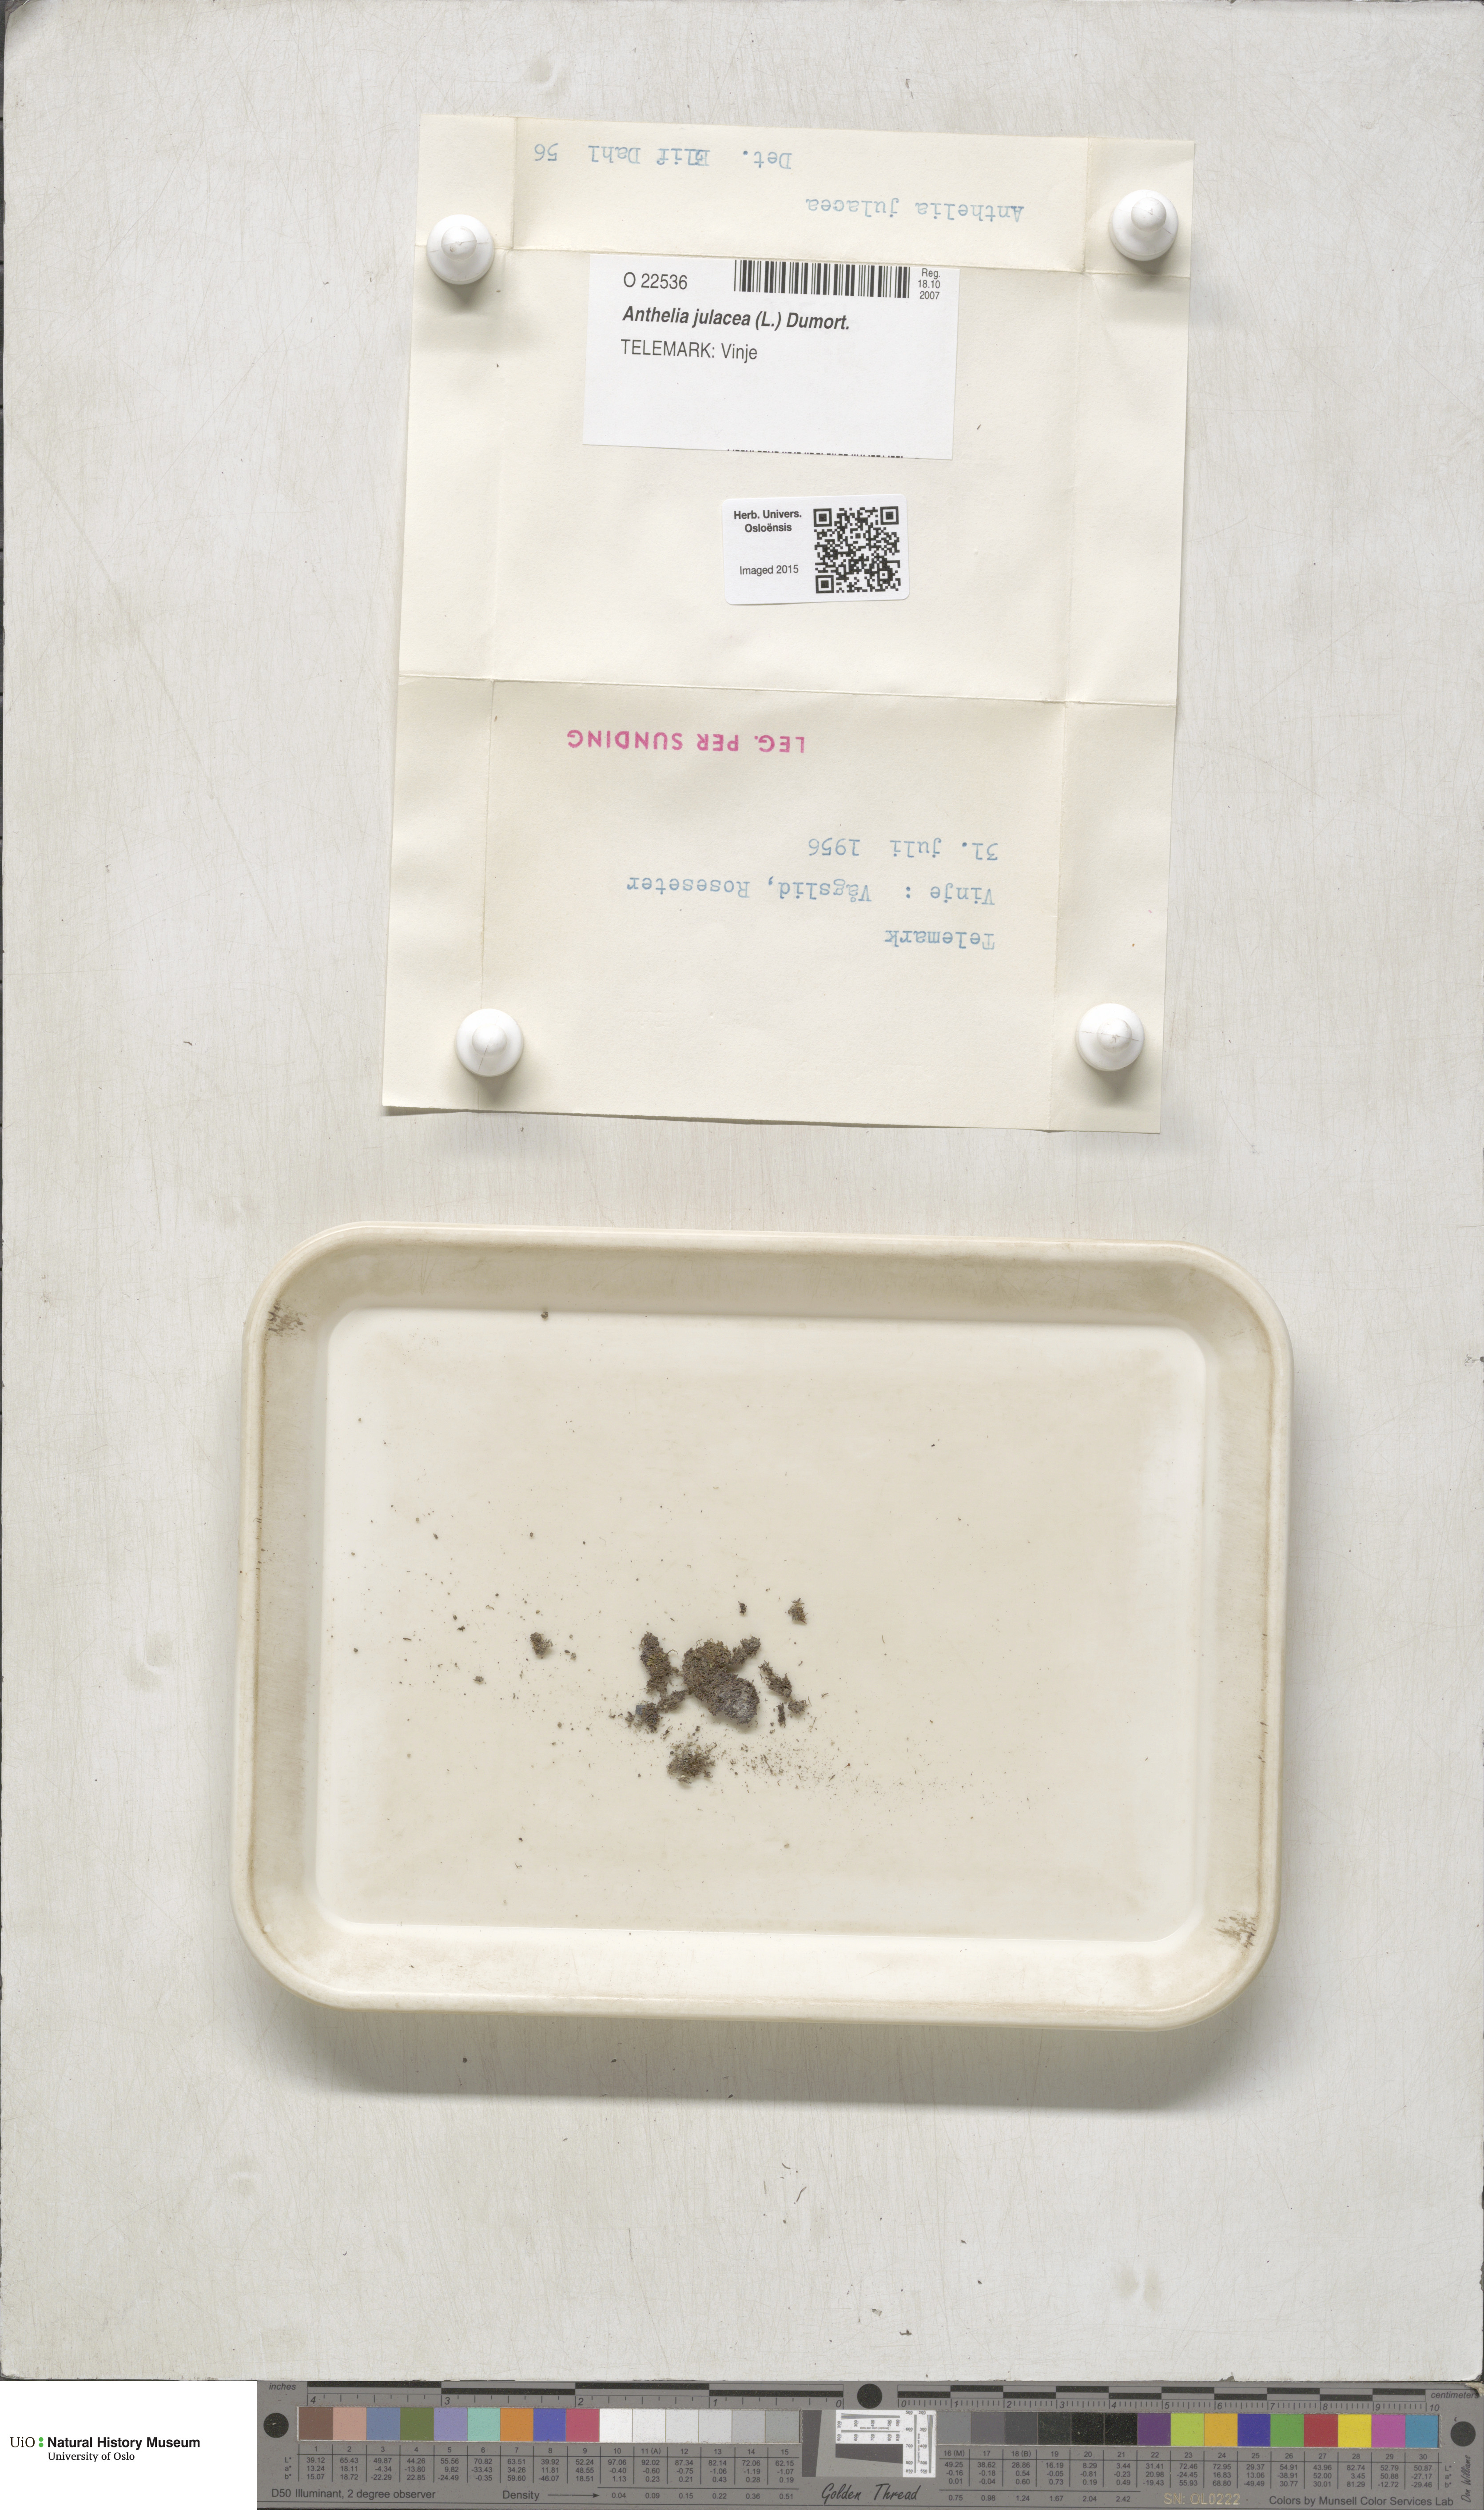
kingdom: Plantae
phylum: Marchantiophyta
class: Jungermanniopsida
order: Jungermanniales
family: Antheliaceae
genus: Anthelia
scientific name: Anthelia julacea
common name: Alpine silverwort
